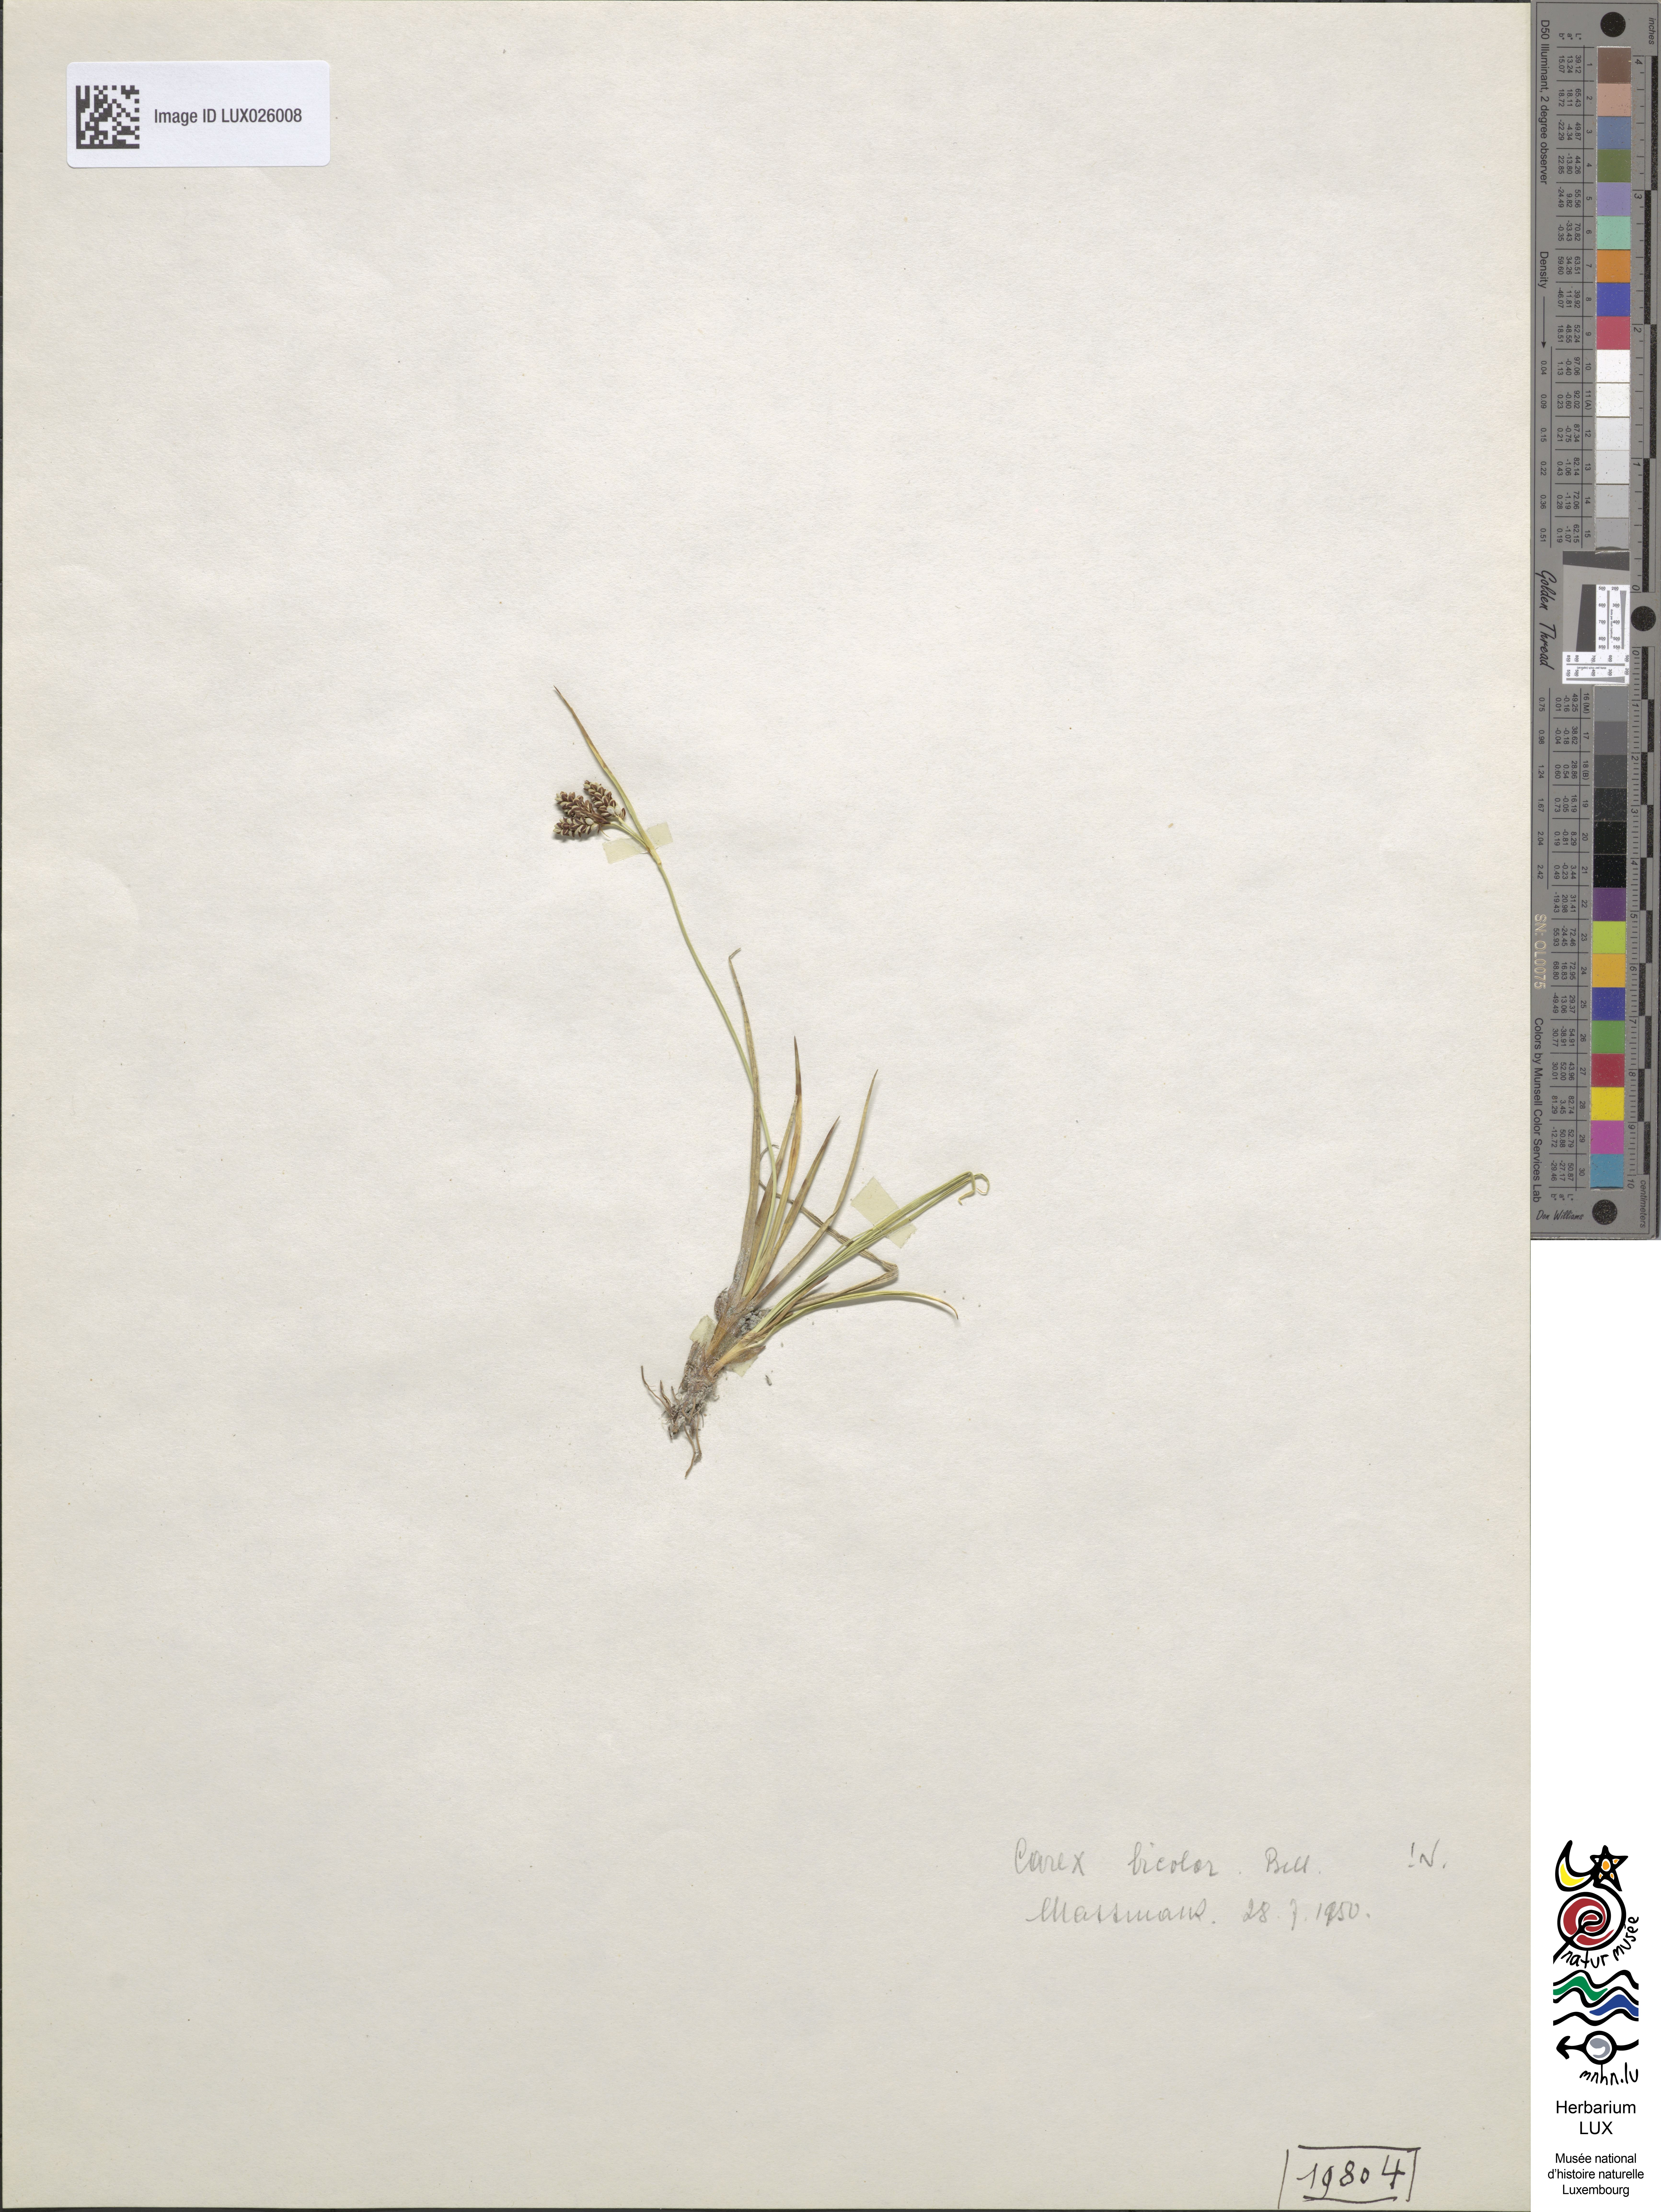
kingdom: Plantae
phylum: Tracheophyta
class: Liliopsida
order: Poales
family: Cyperaceae
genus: Carex
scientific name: Carex bicolor
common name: Bicoloured sedge
